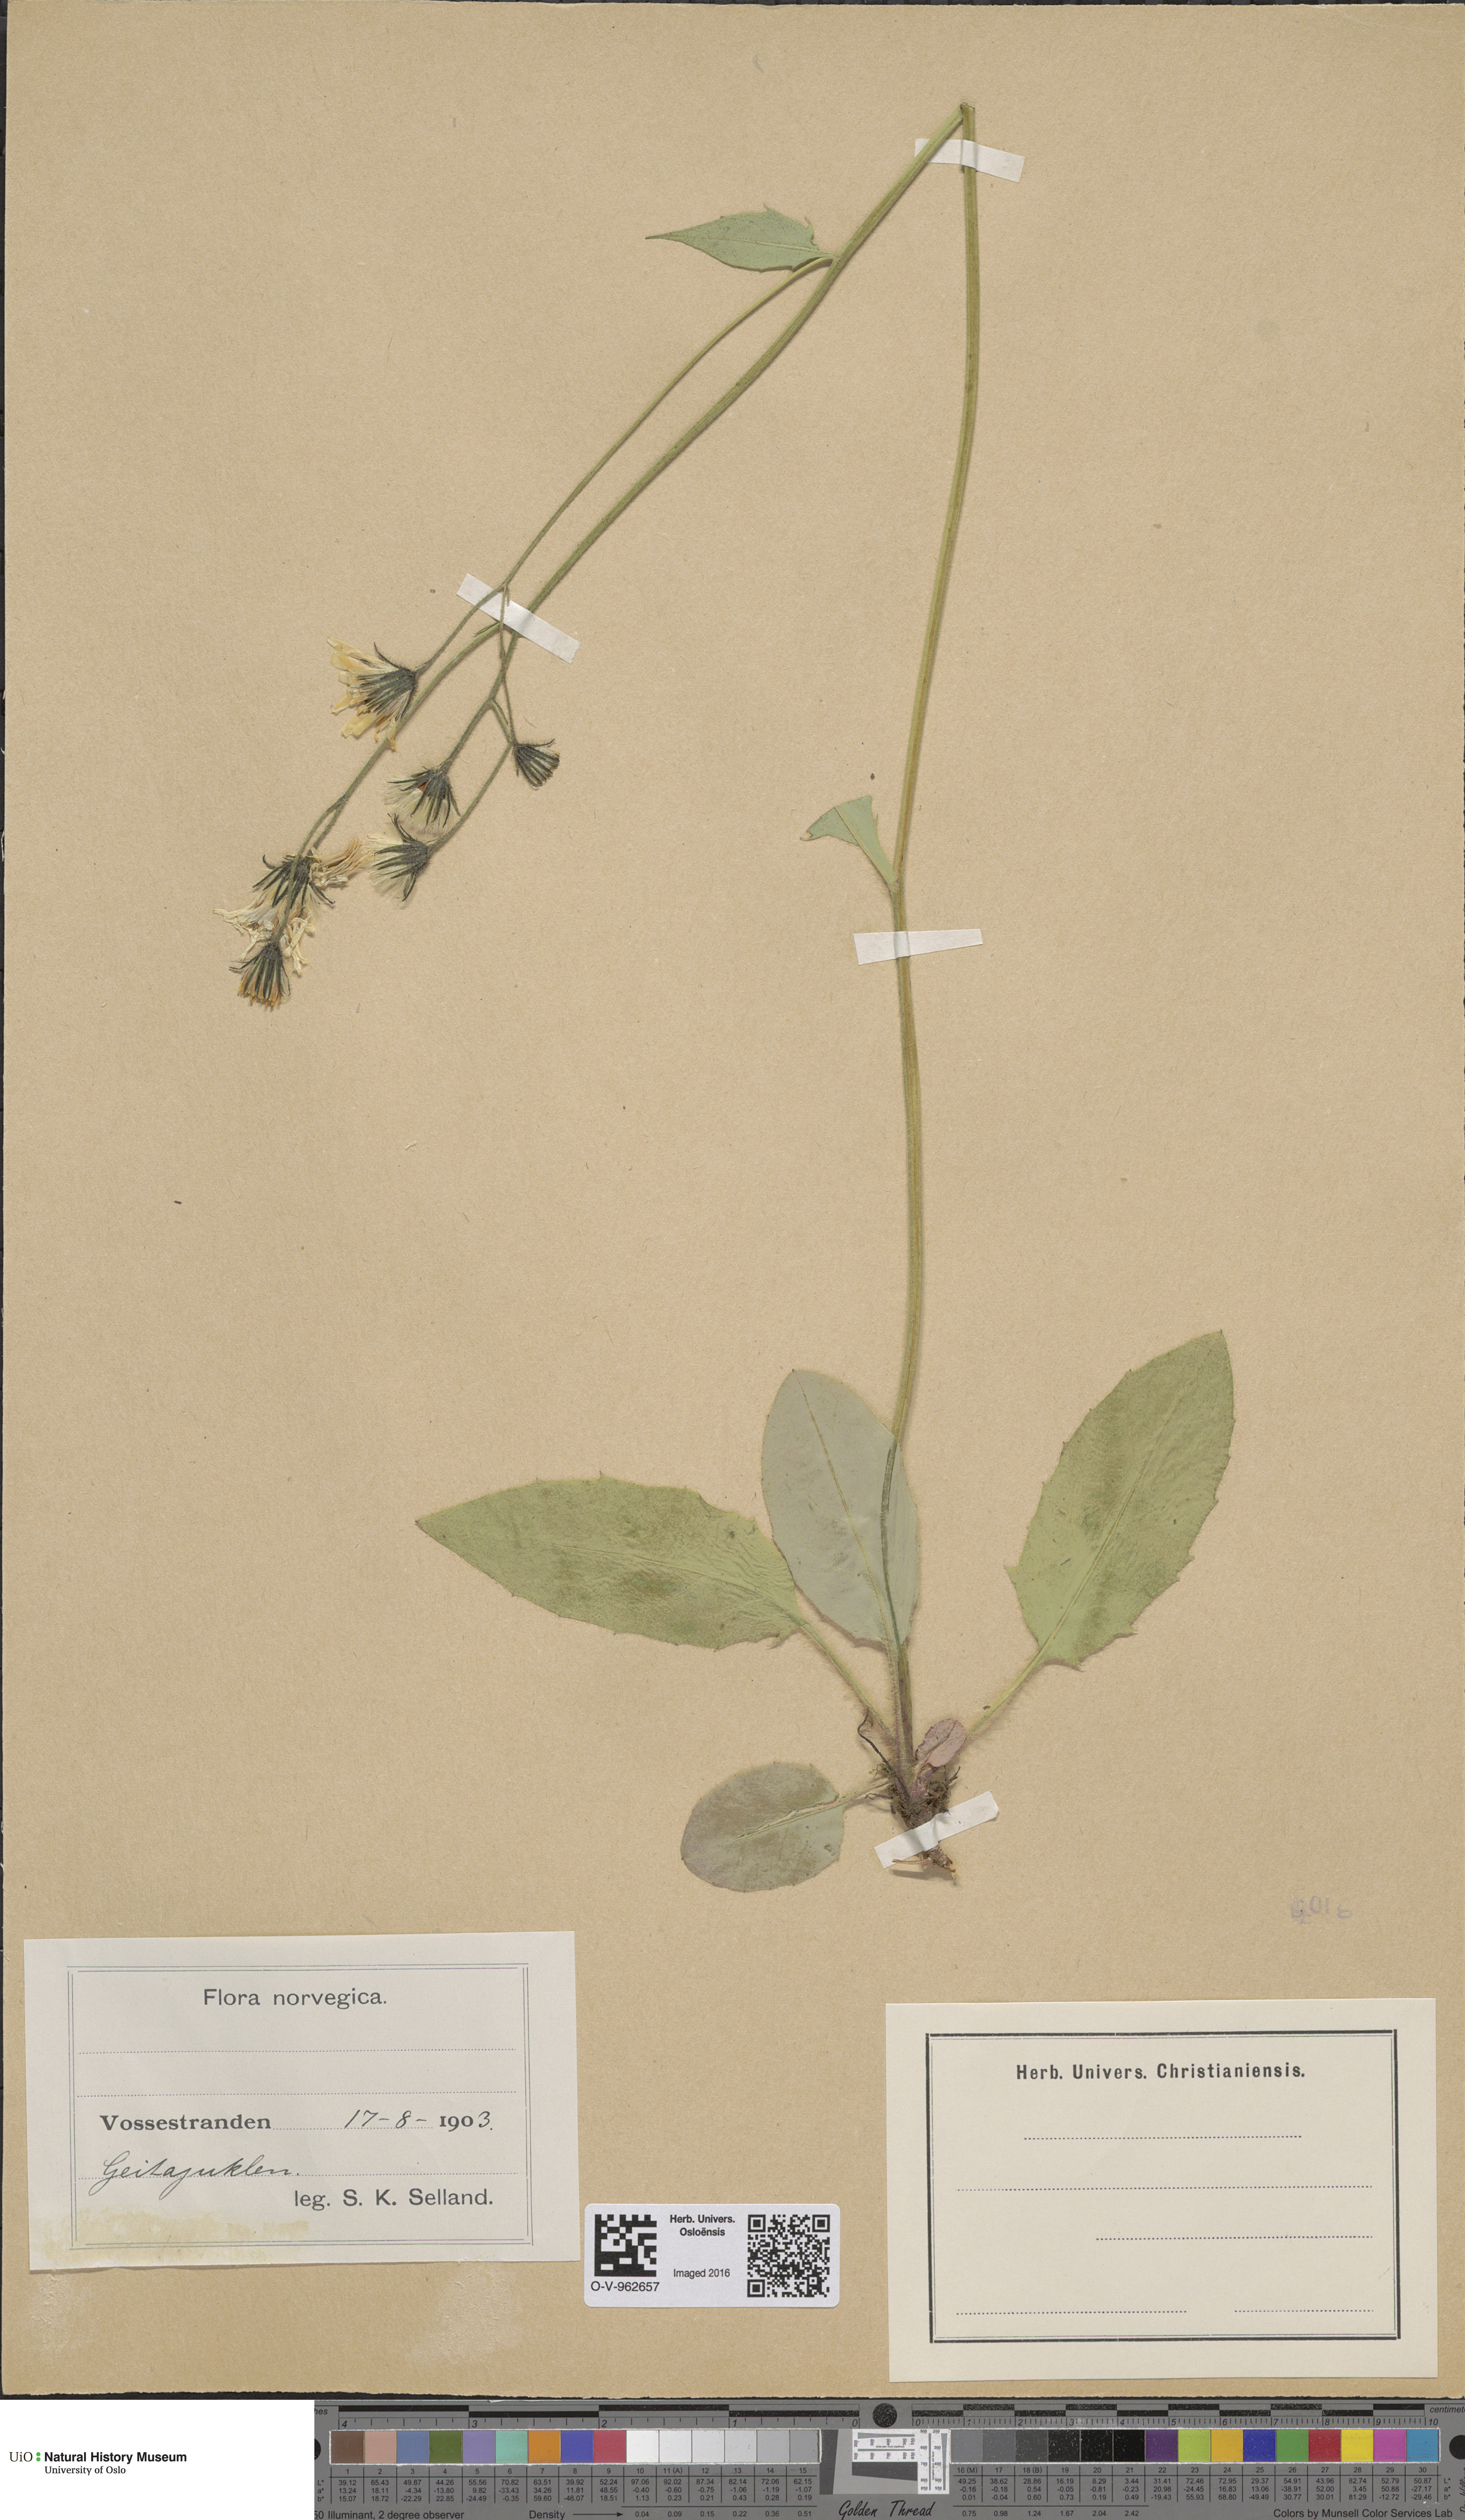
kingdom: Plantae
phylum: Tracheophyta
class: Magnoliopsida
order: Asterales
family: Asteraceae
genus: Hieracium
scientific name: Hieracium
